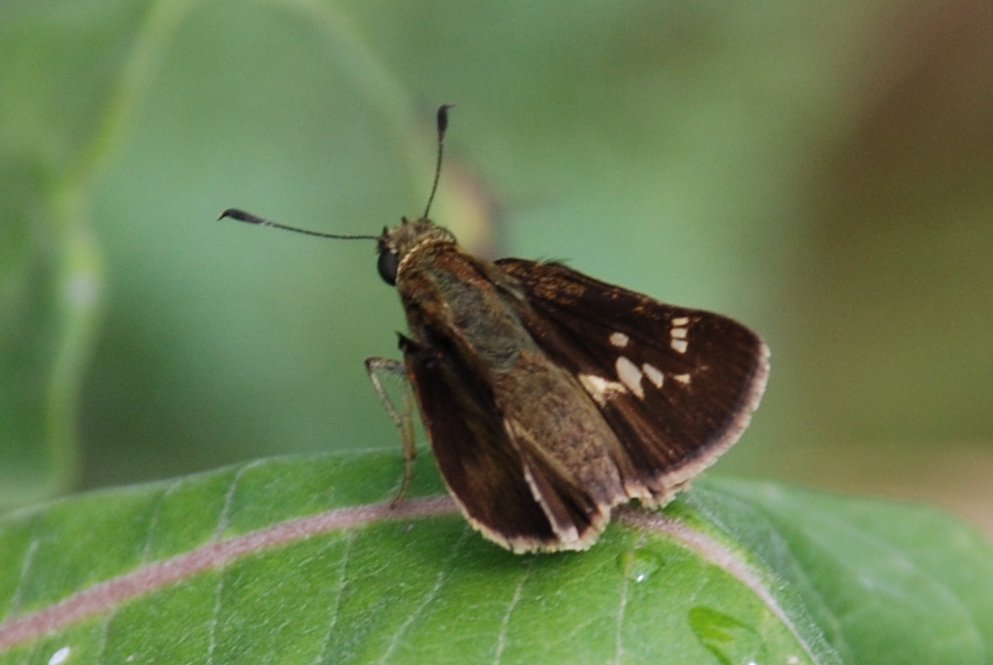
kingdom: Animalia
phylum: Arthropoda
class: Insecta
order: Lepidoptera
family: Hesperiidae
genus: Vernia
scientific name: Vernia verna
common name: Little Glassywing
